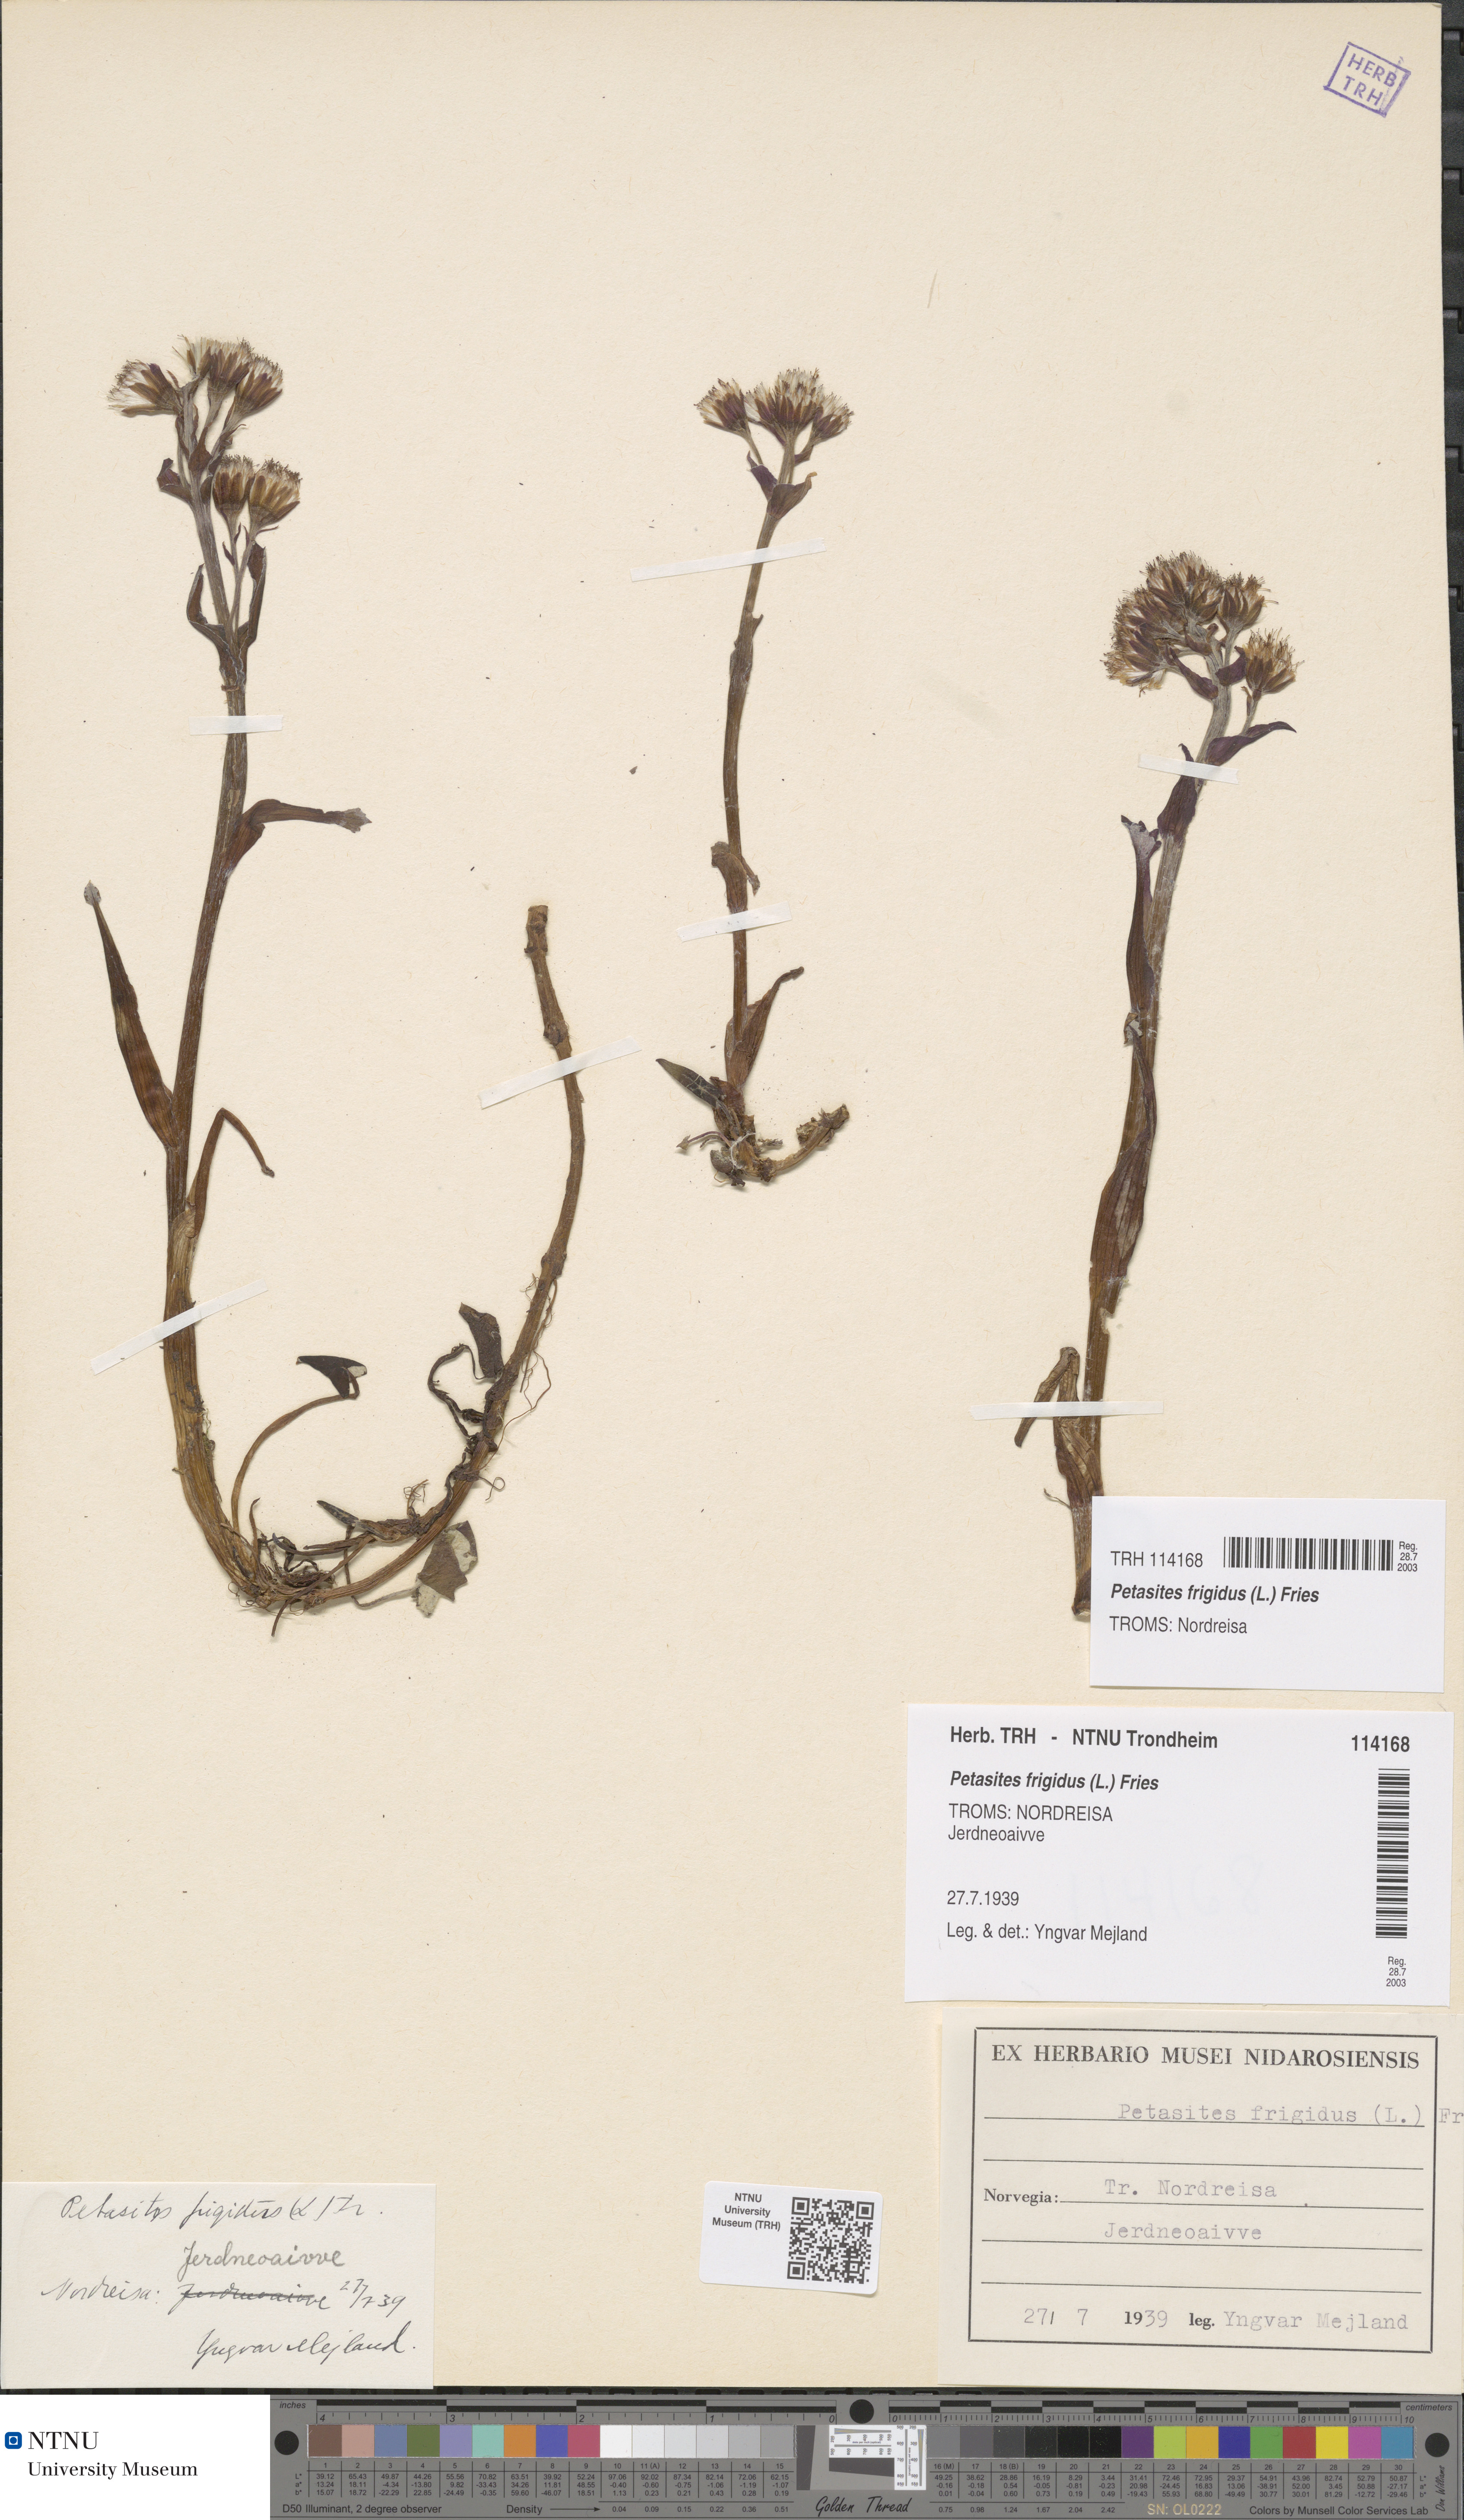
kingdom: Plantae
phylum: Tracheophyta
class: Magnoliopsida
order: Asterales
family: Asteraceae
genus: Petasites
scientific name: Petasites frigidus
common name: Arctic butterbur
